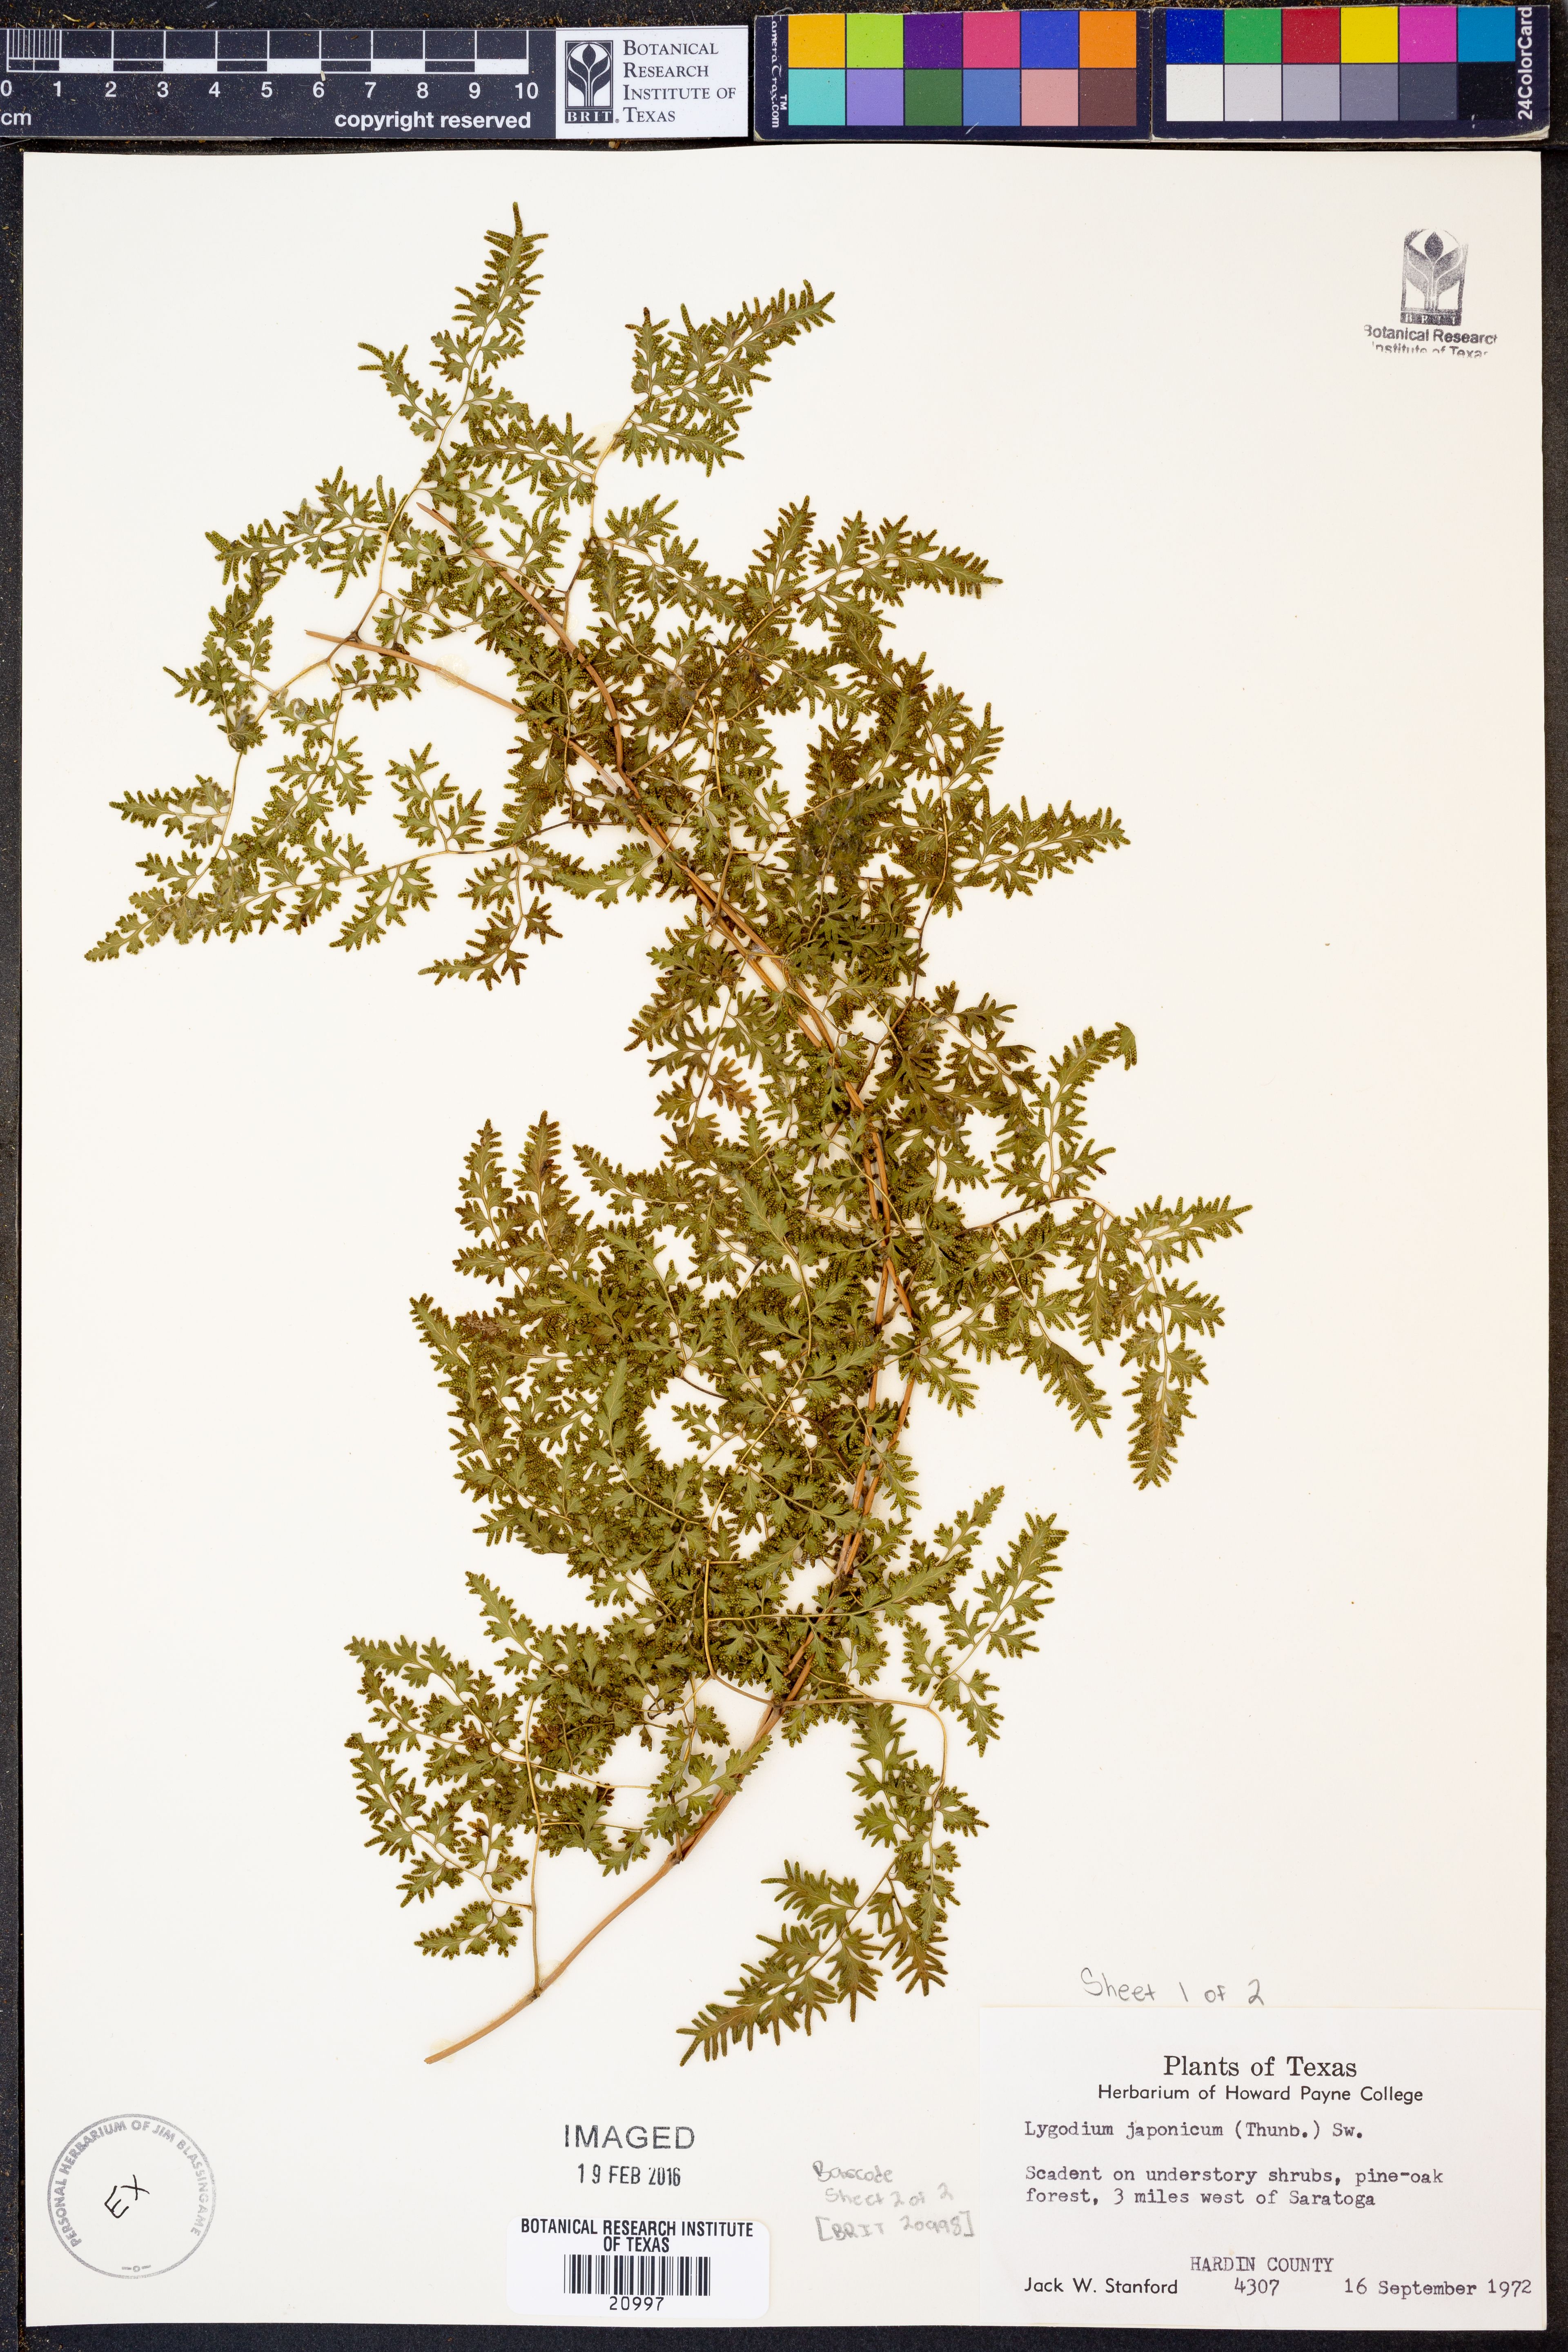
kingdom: Plantae
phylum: Tracheophyta
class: Polypodiopsida
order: Schizaeales
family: Lygodiaceae
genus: Lygodium
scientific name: Lygodium japonicum
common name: Japanese climbing fern
